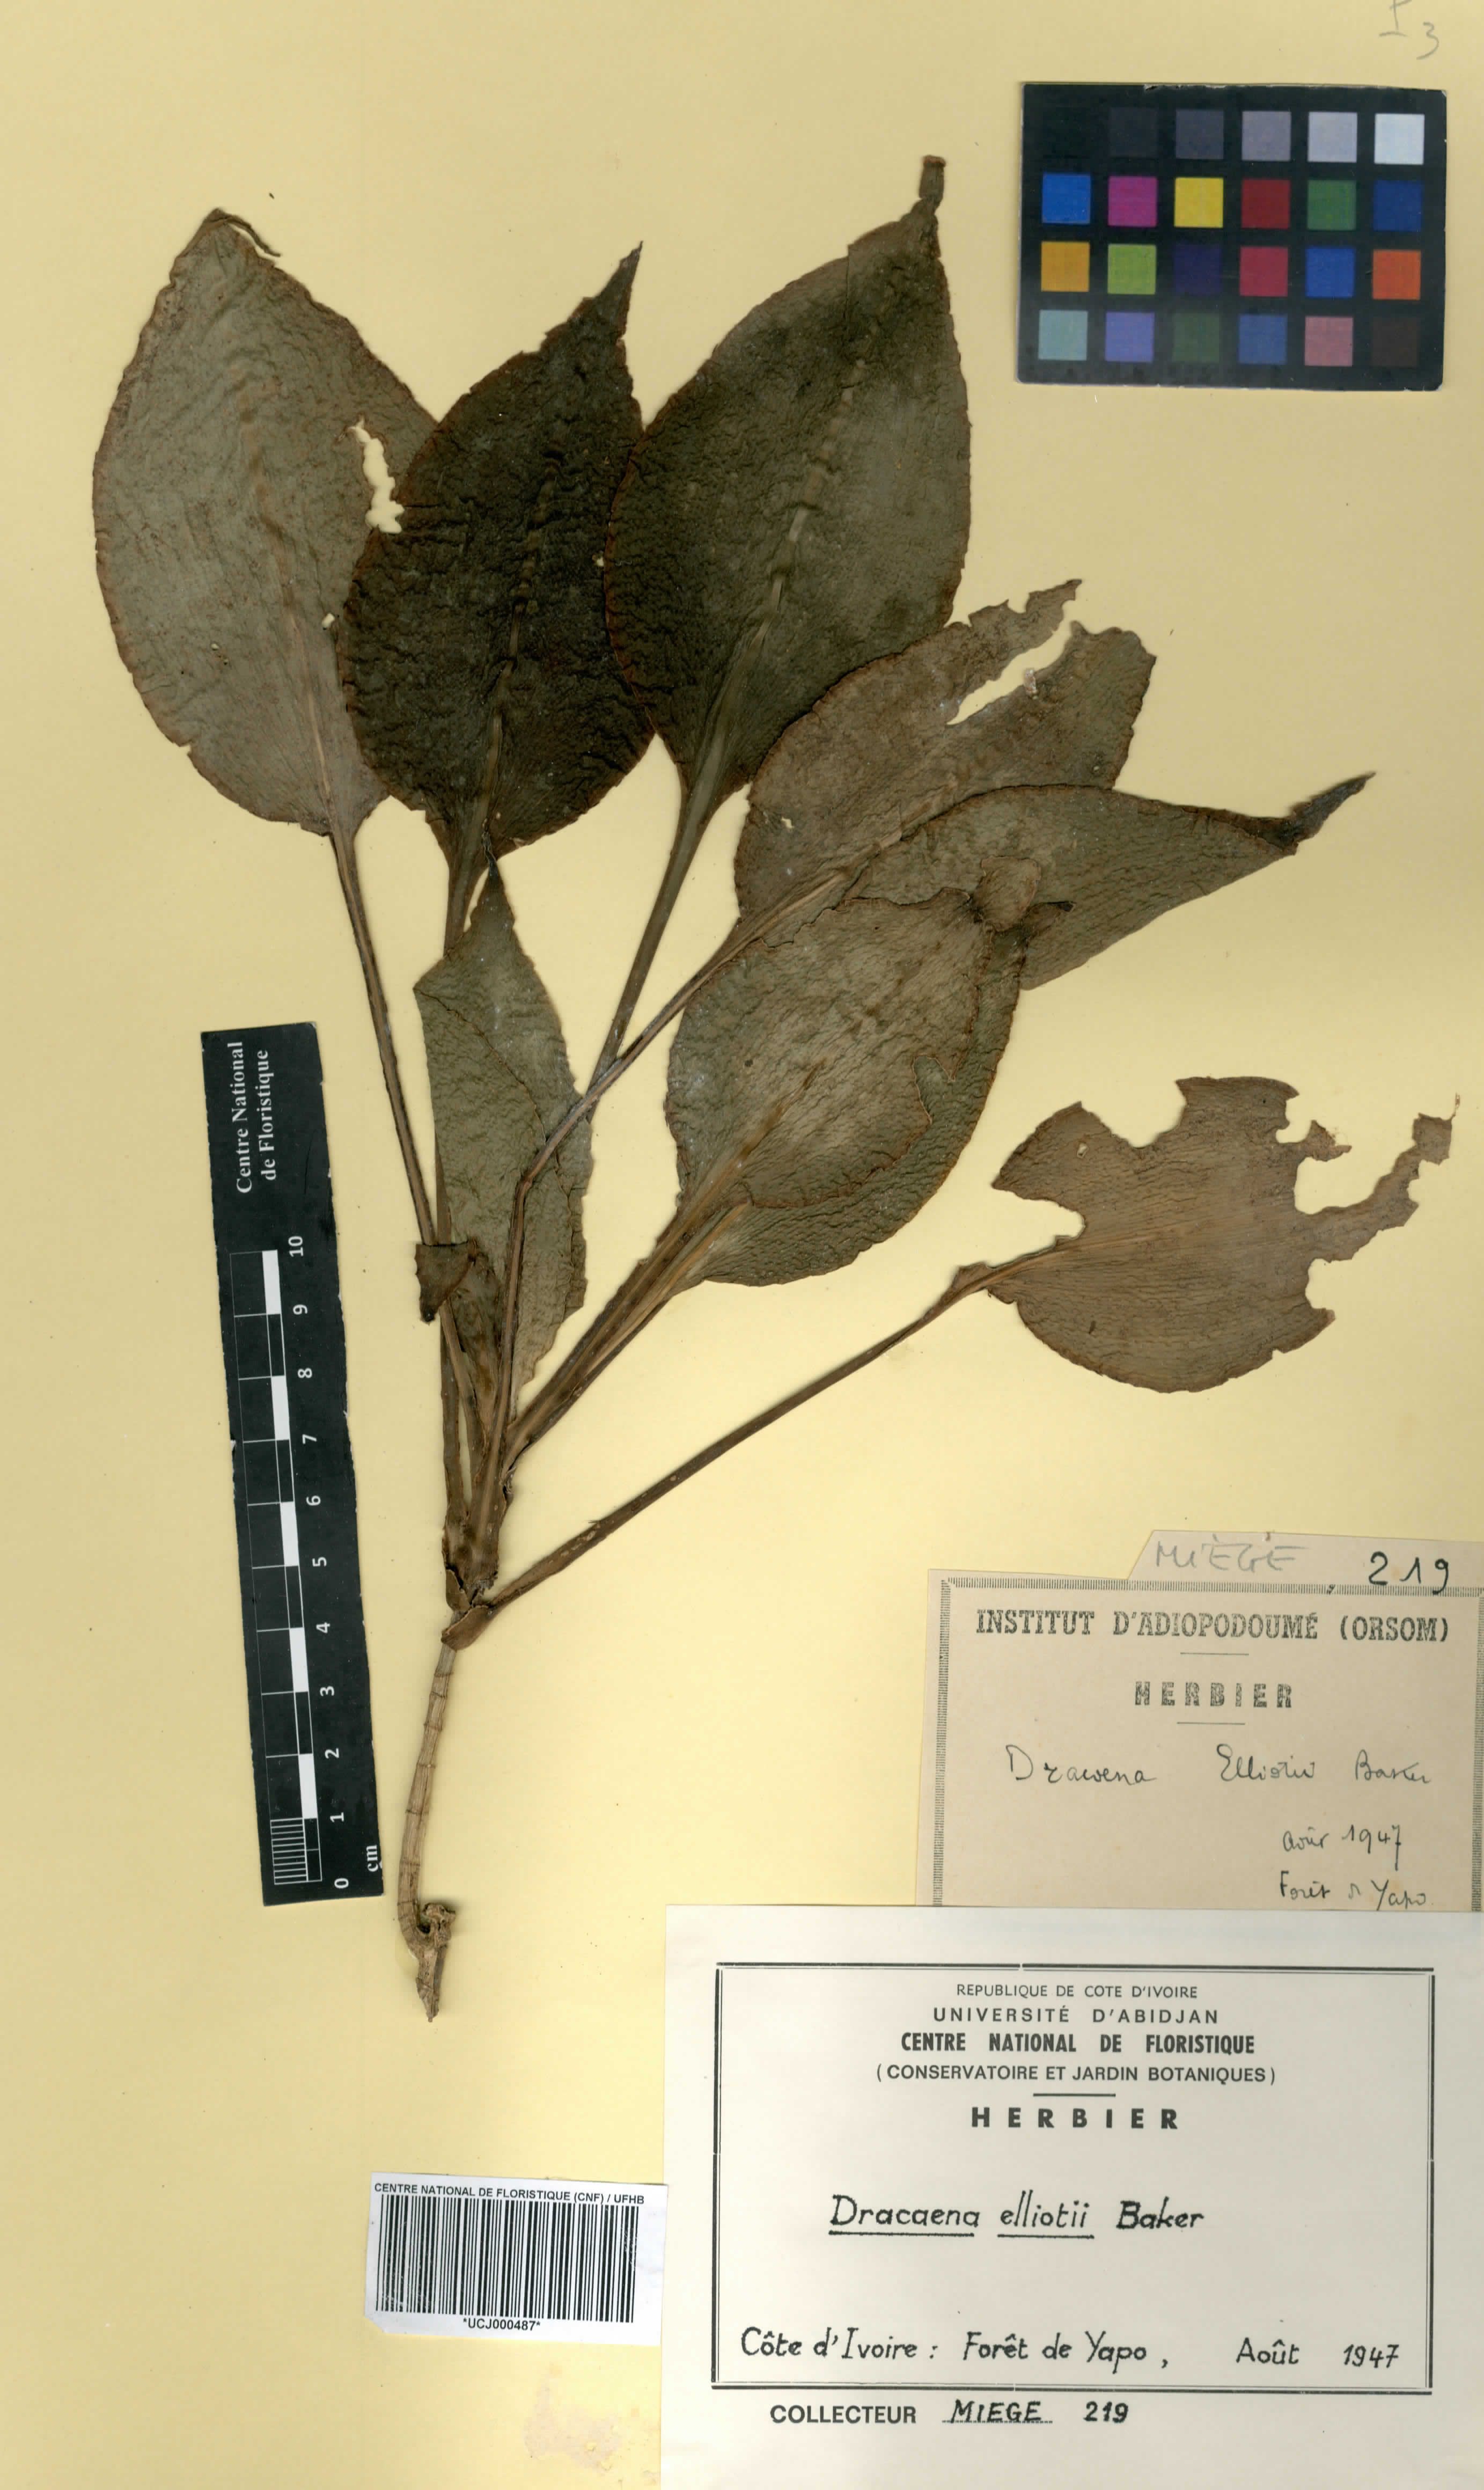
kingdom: Plantae
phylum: Tracheophyta
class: Liliopsida
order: Asparagales
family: Asparagaceae
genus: Dracaena
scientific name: Dracaena cristula
